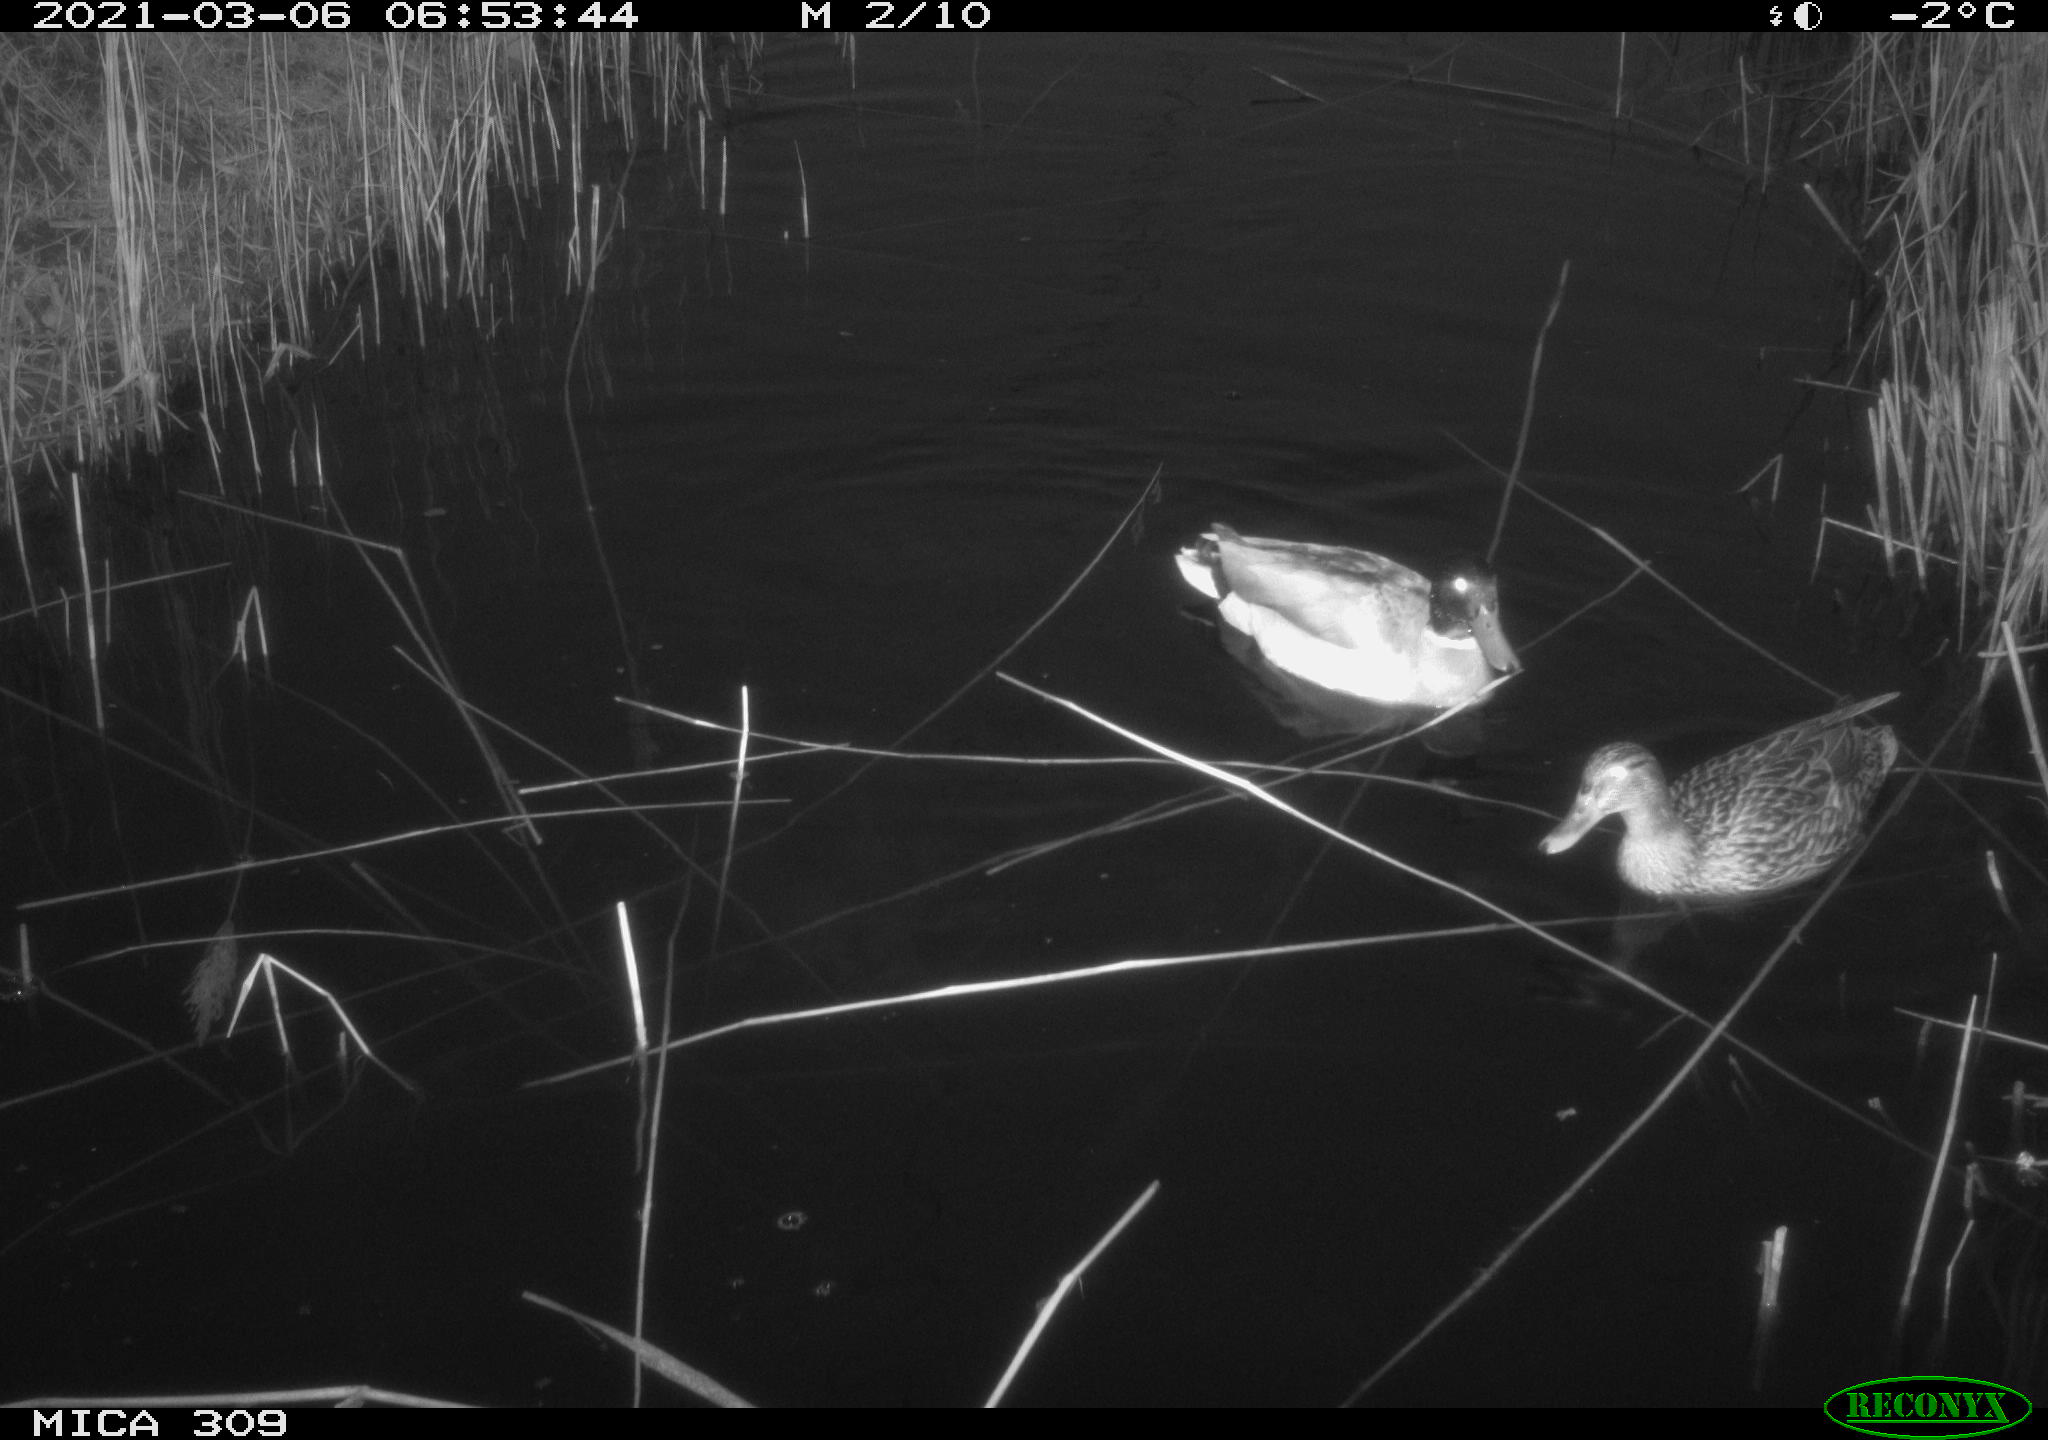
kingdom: Animalia
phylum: Chordata
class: Aves
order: Anseriformes
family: Anatidae
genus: Anas
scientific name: Anas platyrhynchos
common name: Mallard
